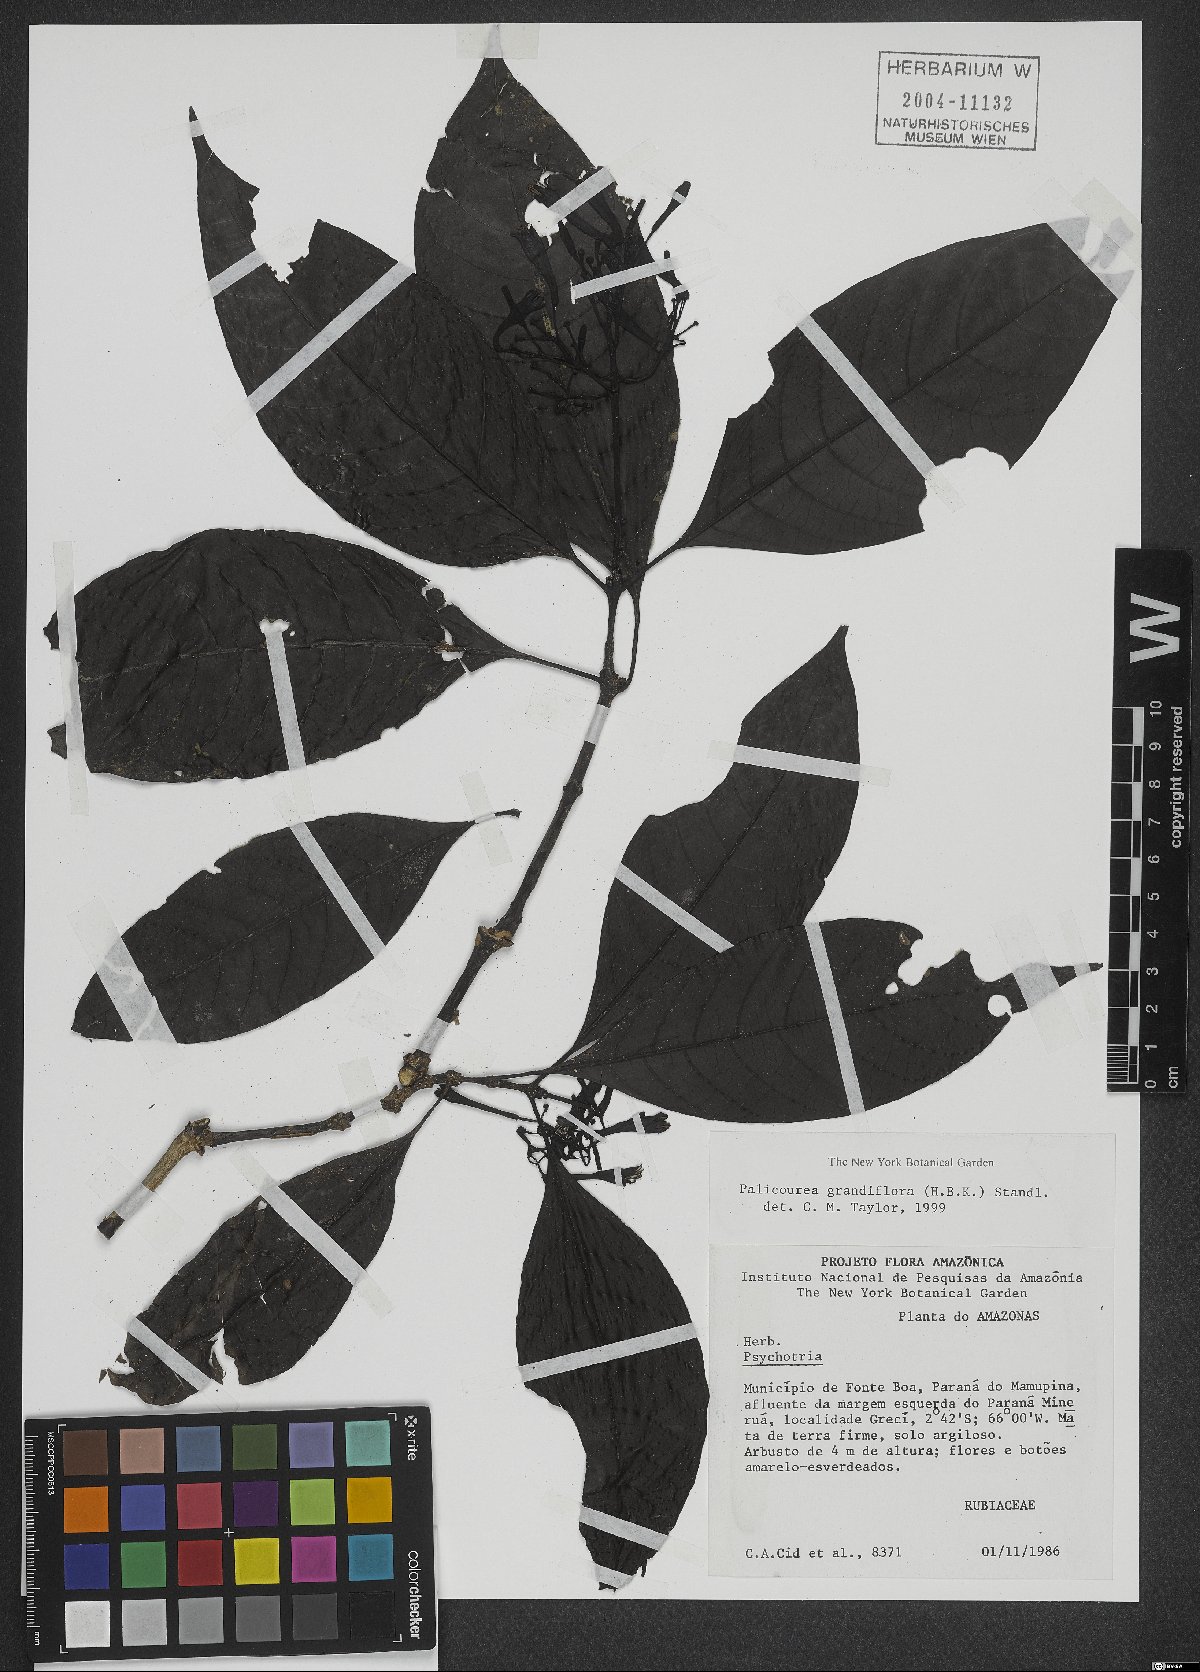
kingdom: Plantae
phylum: Tracheophyta
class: Magnoliopsida
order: Gentianales
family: Rubiaceae
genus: Palicourea
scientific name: Palicourea grandifolia
